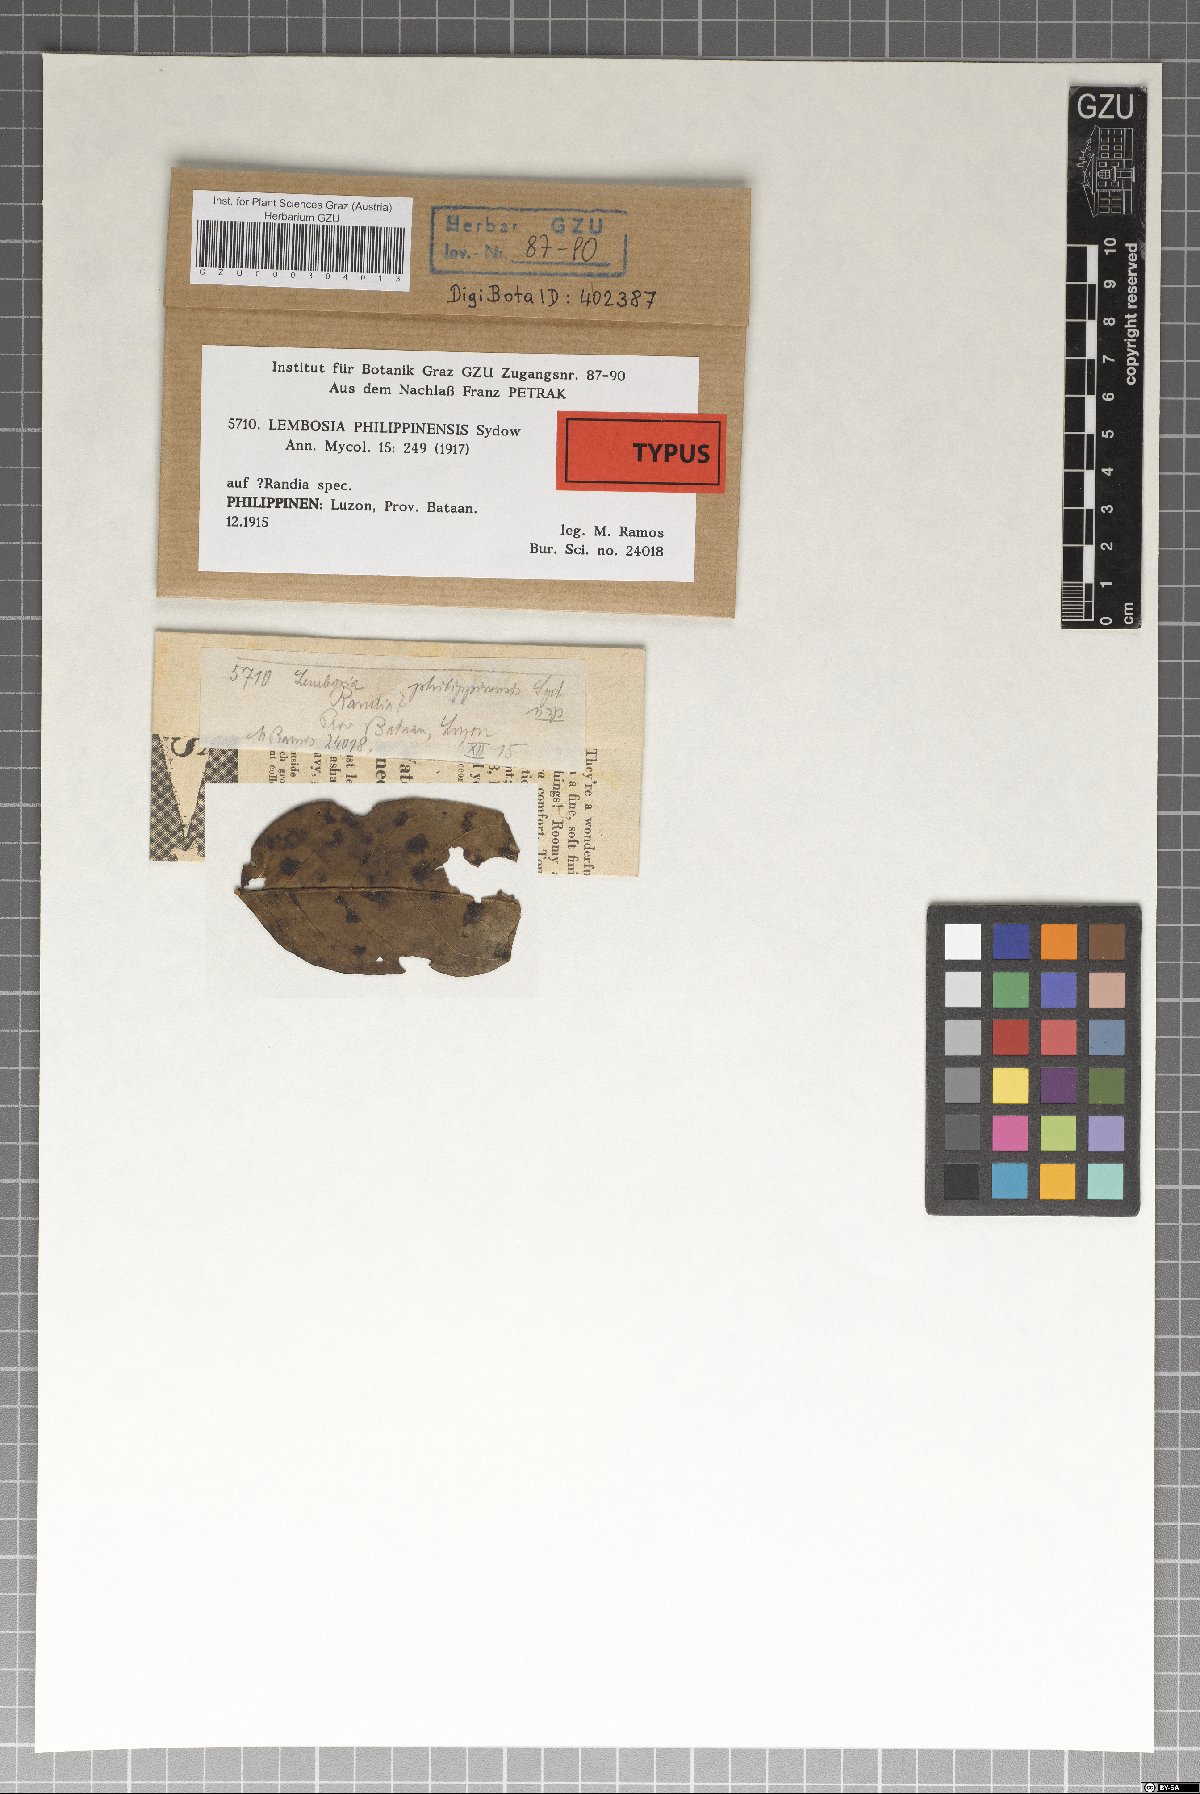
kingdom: Fungi
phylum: Ascomycota
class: Dothideomycetes
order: Asterinales
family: Asterinaceae
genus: Lembosia
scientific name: Lembosia philippinensis
